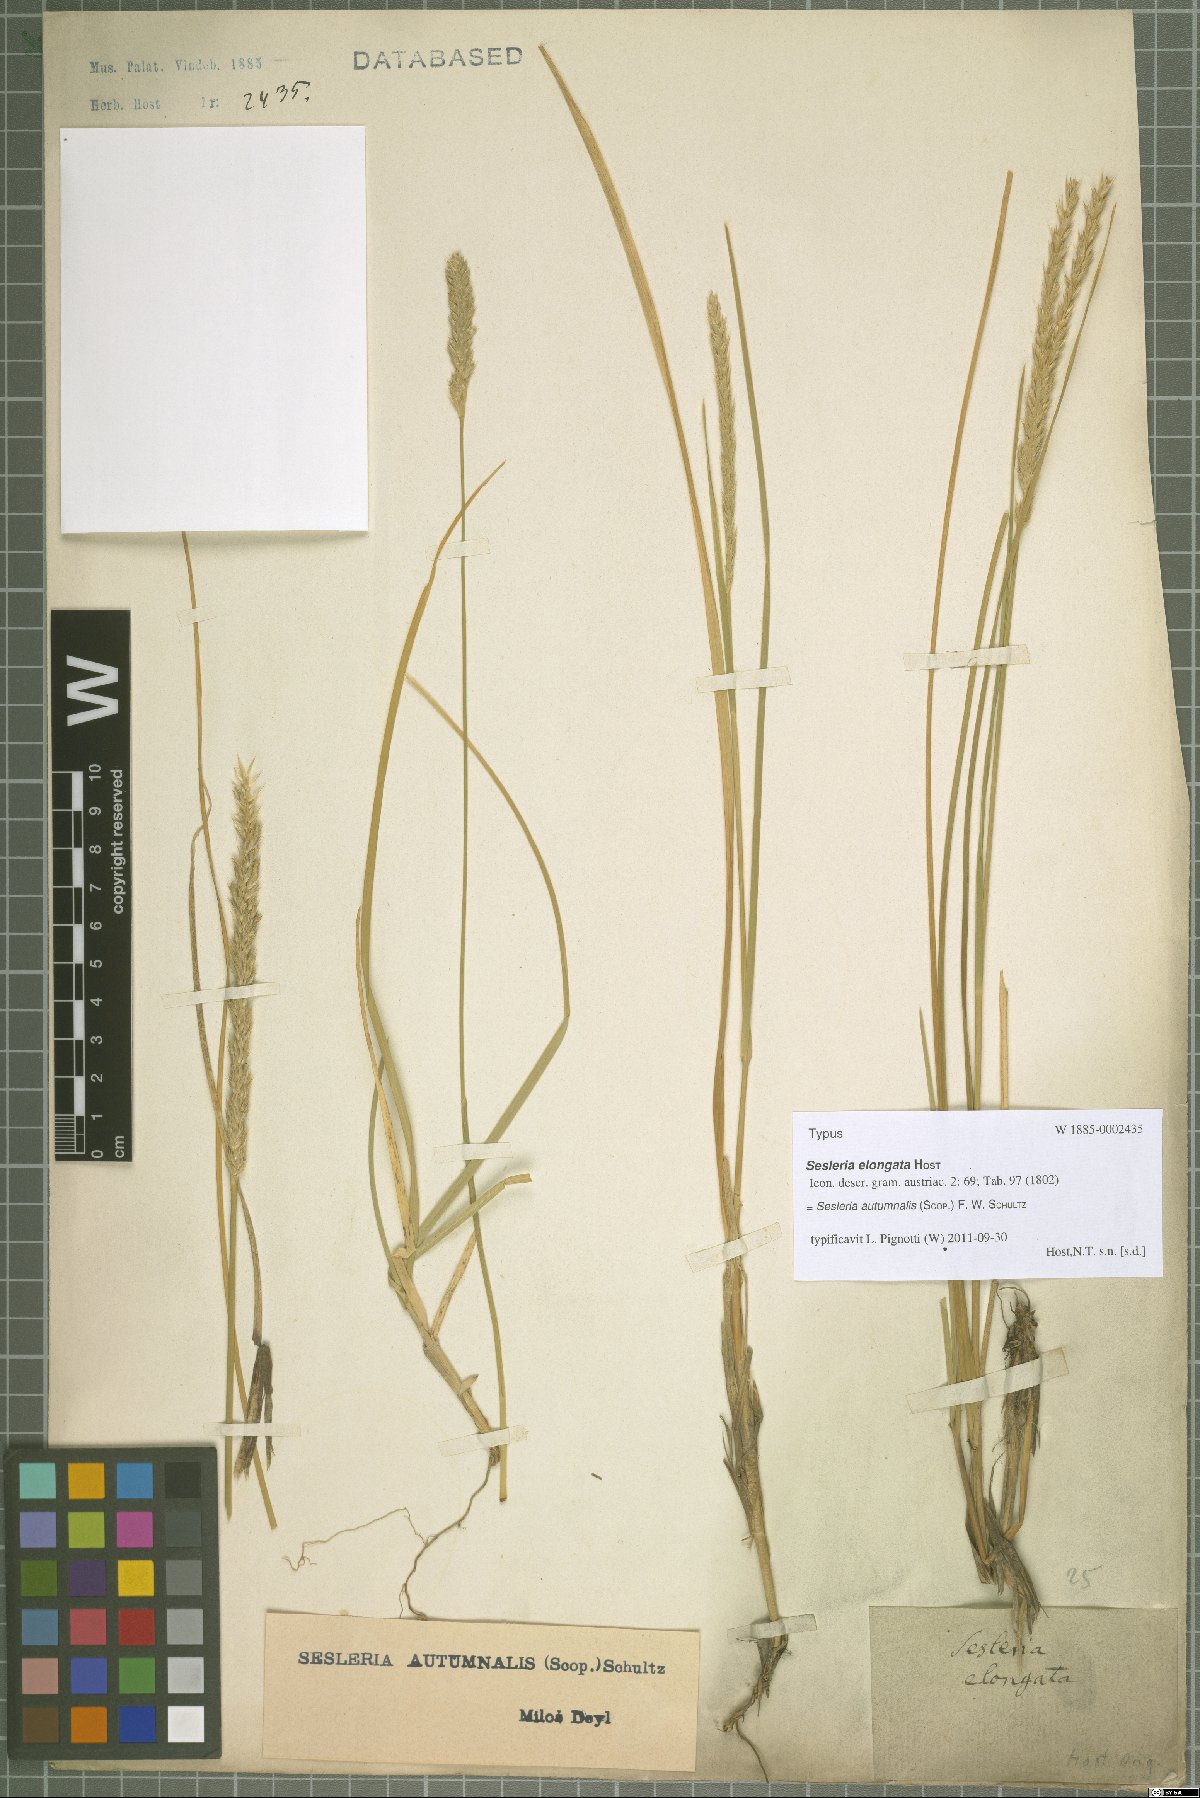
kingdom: Plantae
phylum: Tracheophyta
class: Liliopsida
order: Poales
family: Poaceae
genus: Sesleria
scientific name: Sesleria autumnalis
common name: Autumn moor grass
